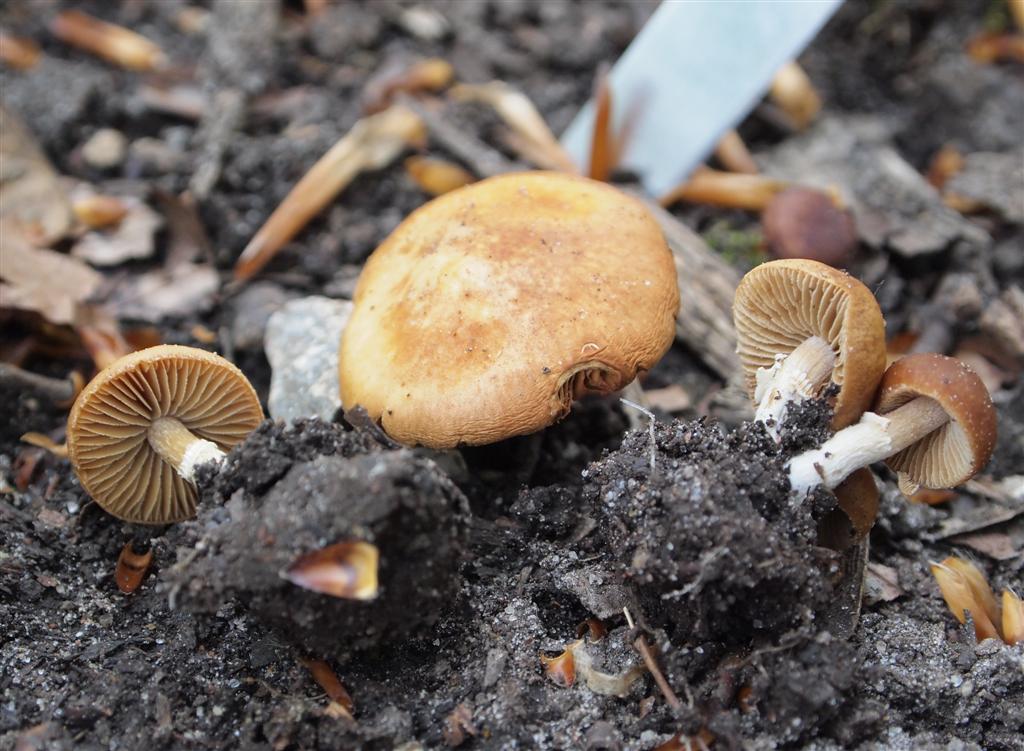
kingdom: Fungi
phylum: Basidiomycota
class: Agaricomycetes
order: Agaricales
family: Bolbitiaceae
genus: Conocybe
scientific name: Conocybe aporos
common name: tidlig dansehat
